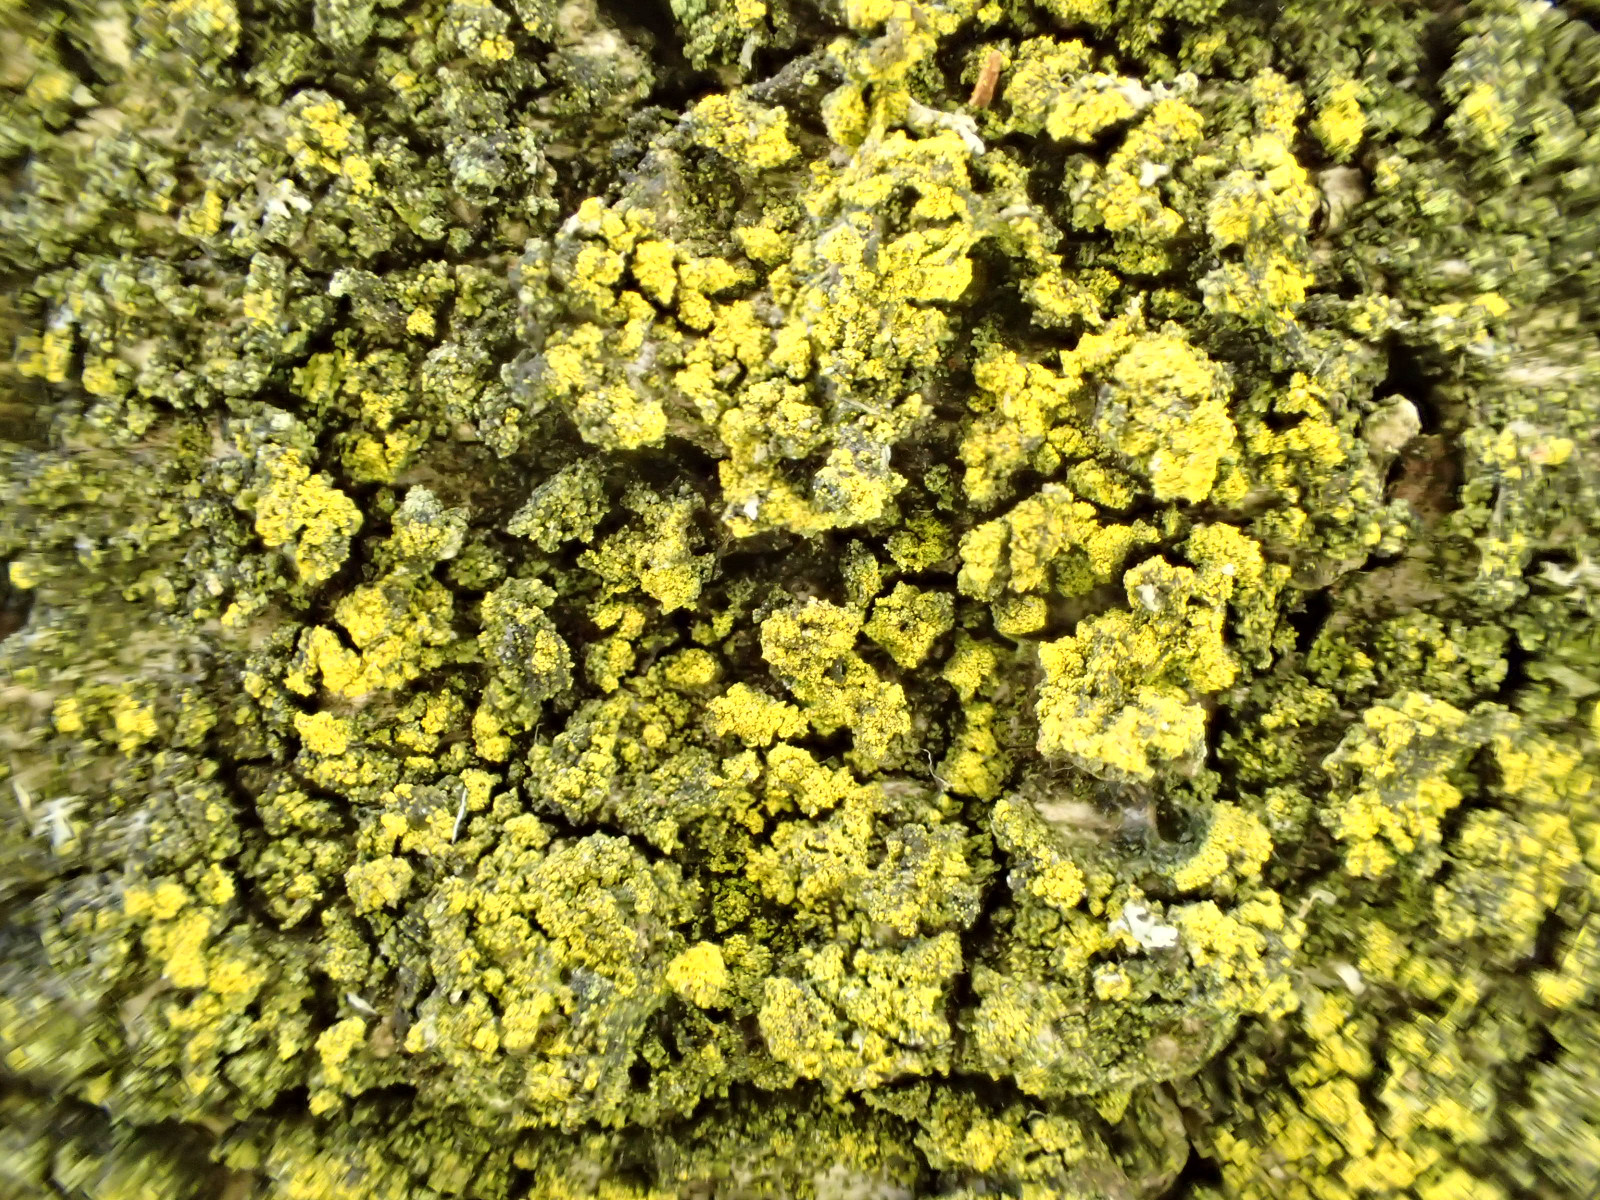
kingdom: Fungi
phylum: Ascomycota
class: Candelariomycetes
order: Candelariales
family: Candelariaceae
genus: Candelariella
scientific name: Candelariella reflexa
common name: grynskællet æggeblommelav
